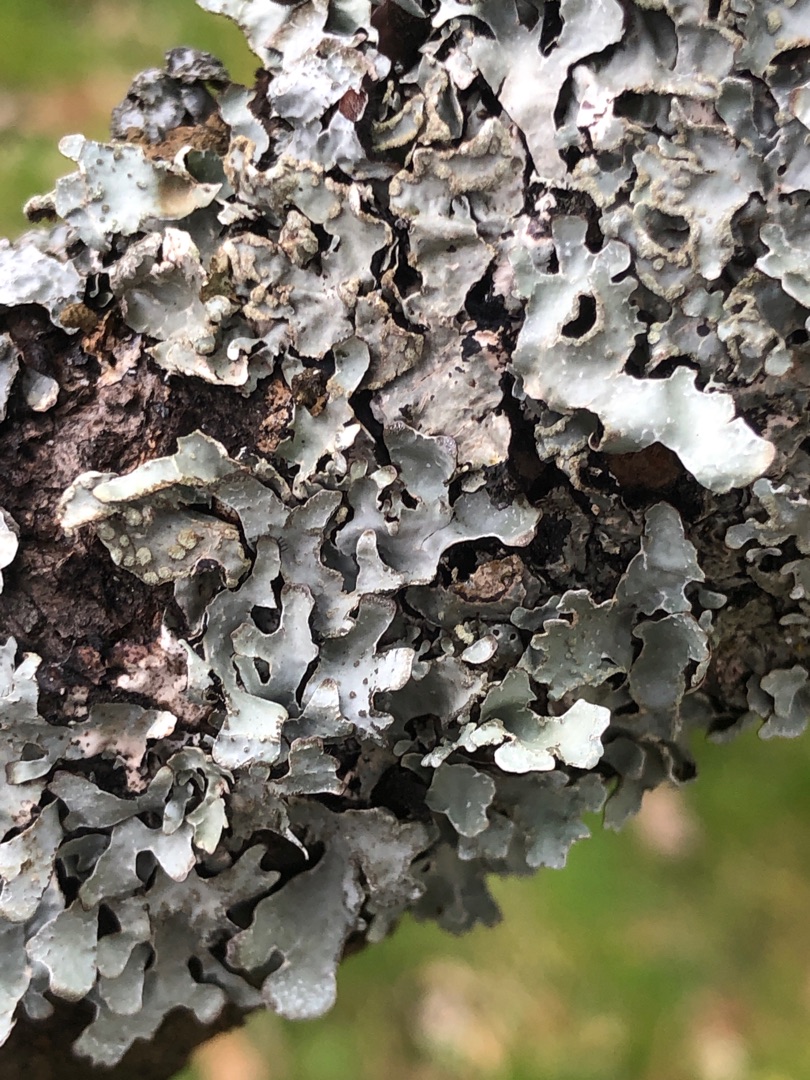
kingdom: Fungi
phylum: Ascomycota
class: Lecanoromycetes
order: Lecanorales
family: Parmeliaceae
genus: Parmelia
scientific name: Parmelia sulcata
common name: Rynket skållav
